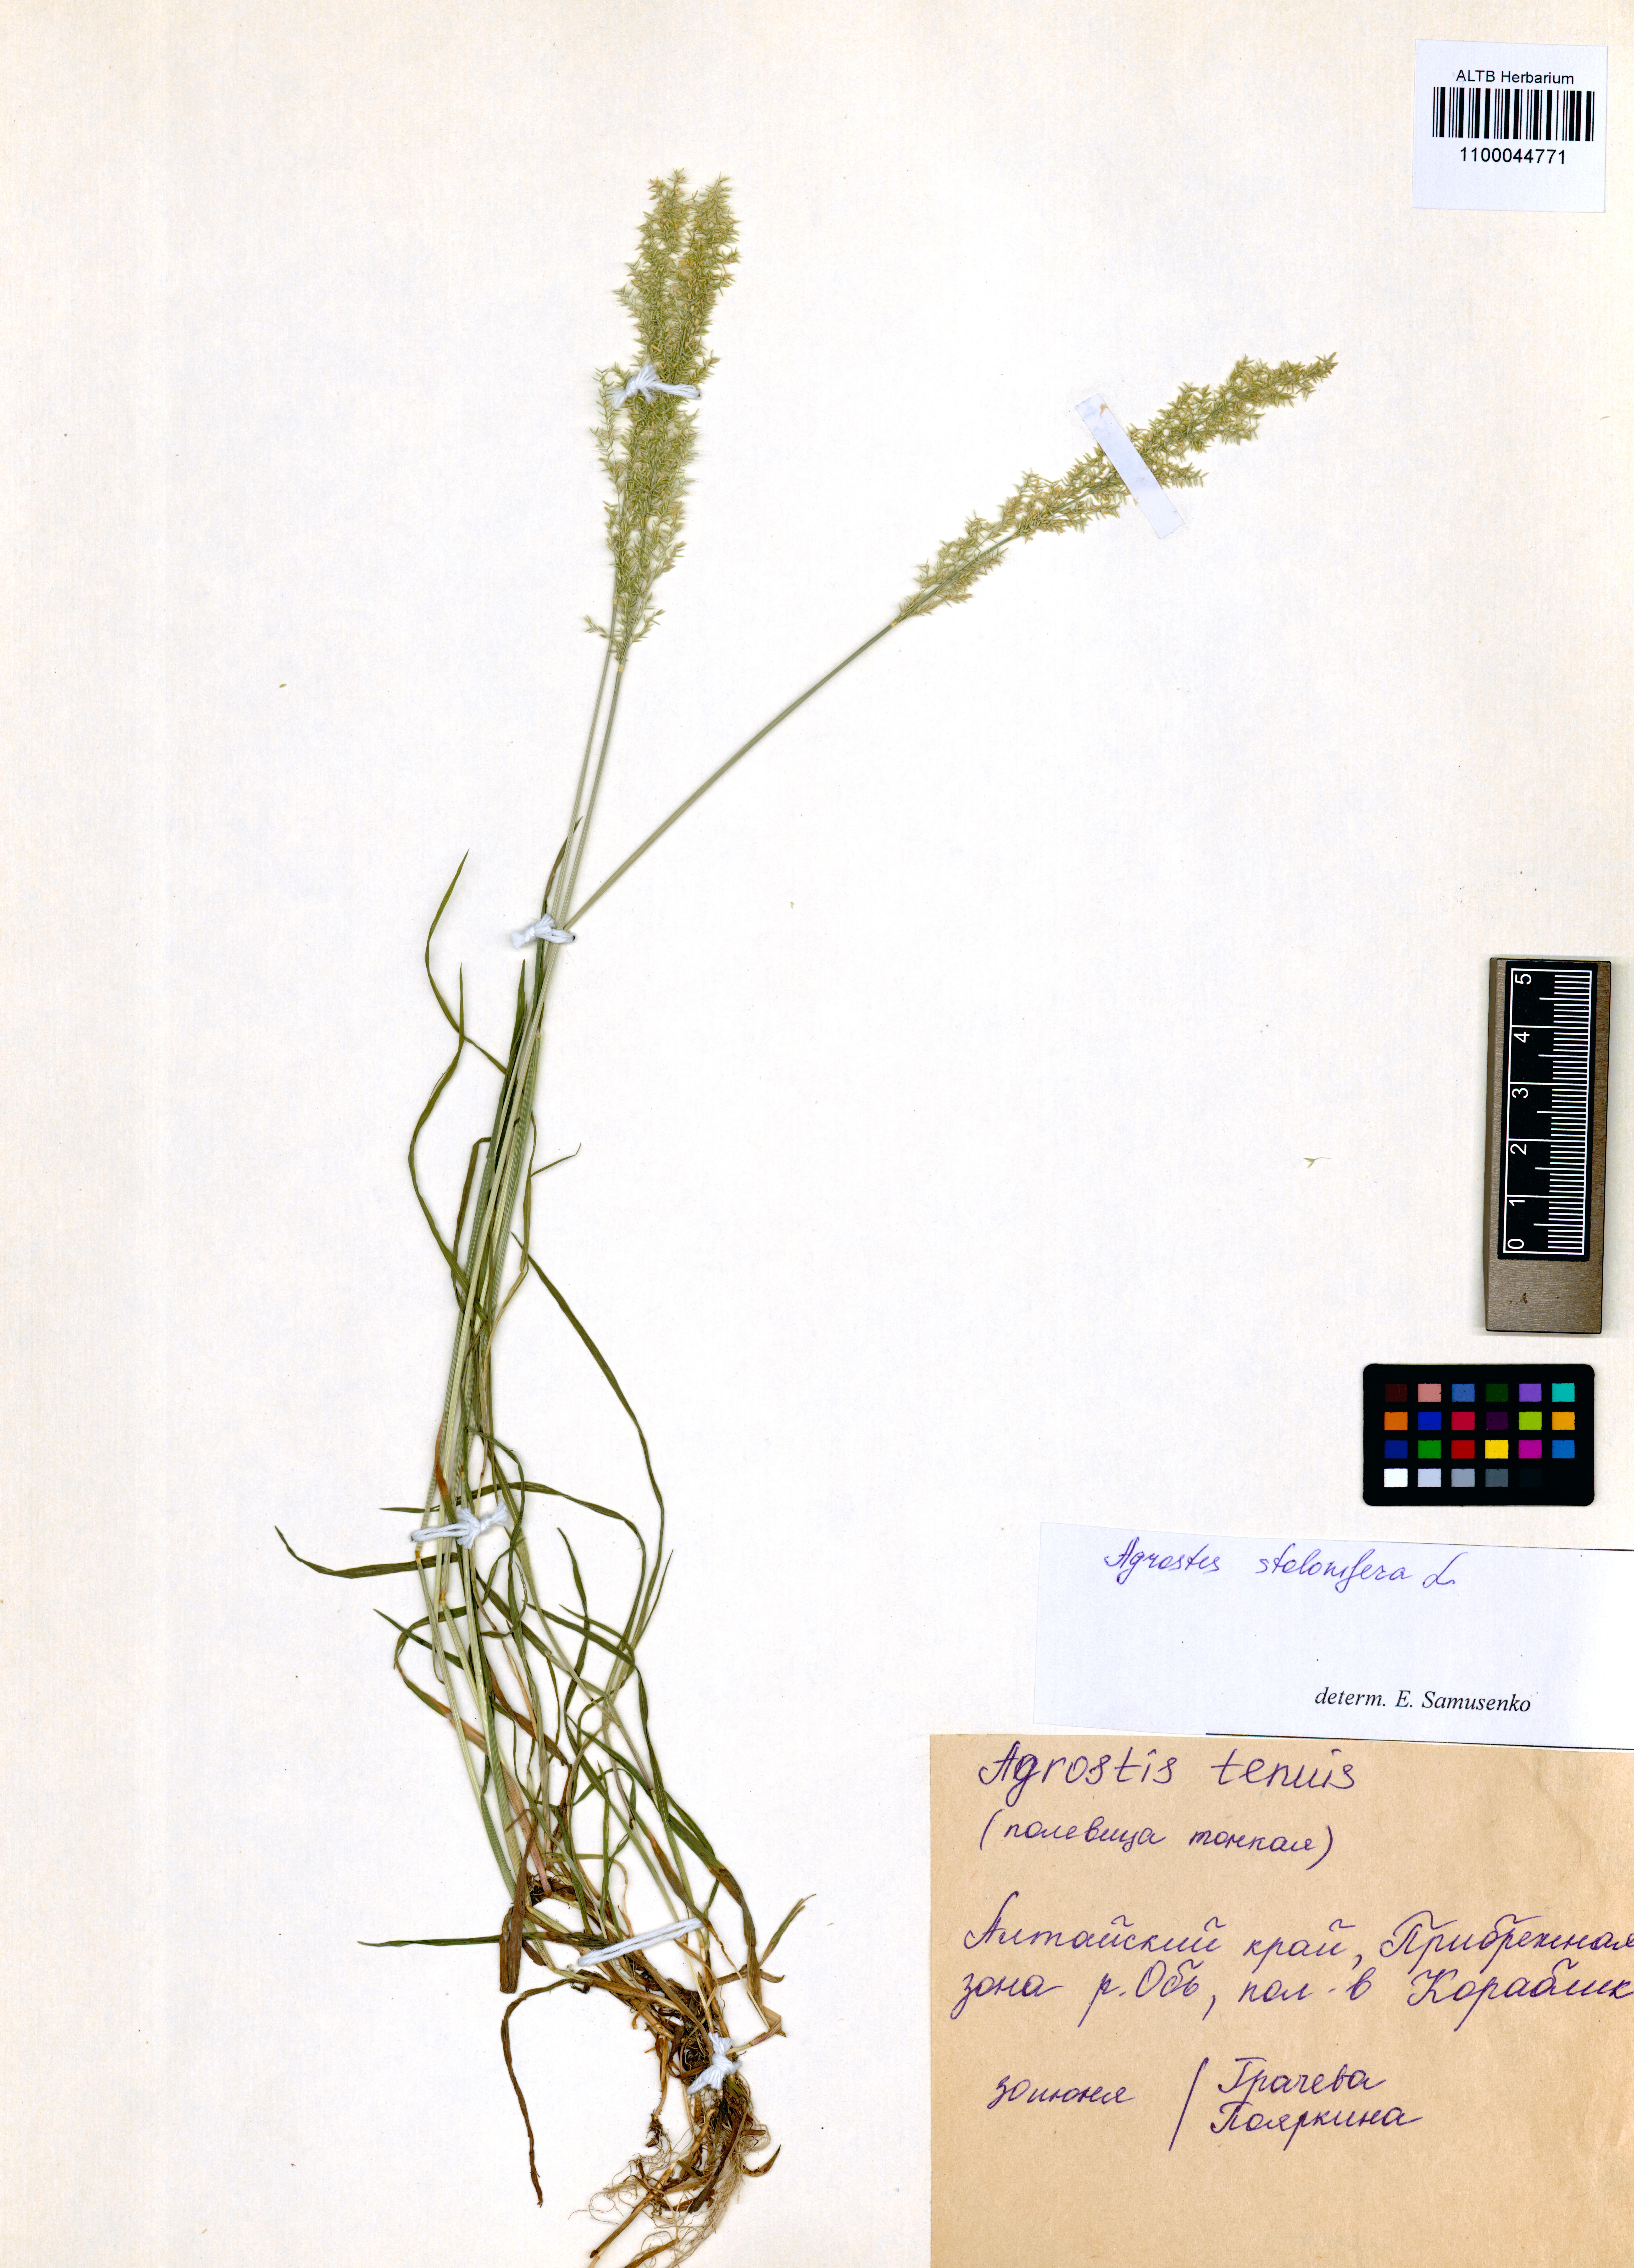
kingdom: Plantae
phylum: Tracheophyta
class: Liliopsida
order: Poales
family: Poaceae
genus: Agrostis
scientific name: Agrostis stolonifera
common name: Creeping bentgrass
